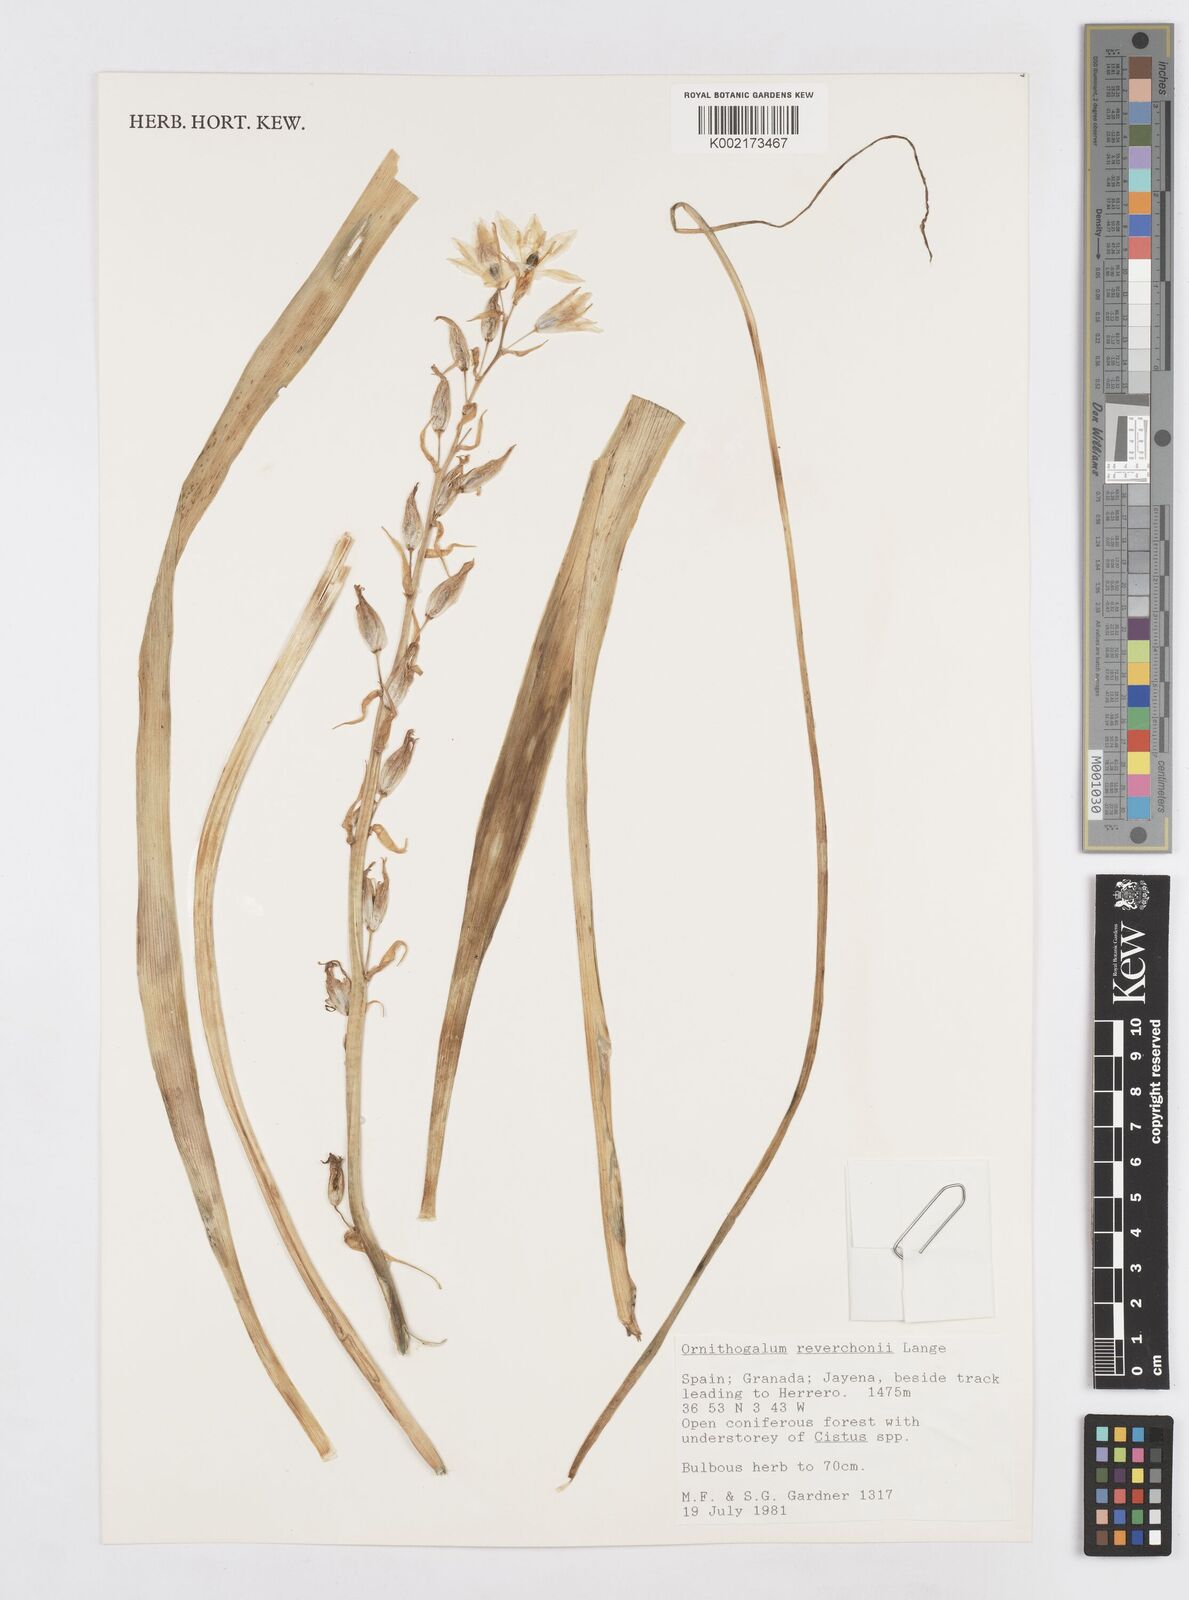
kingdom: Plantae
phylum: Tracheophyta
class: Liliopsida
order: Asparagales
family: Asparagaceae
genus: Ornithogalum
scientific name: Ornithogalum reverchonii
